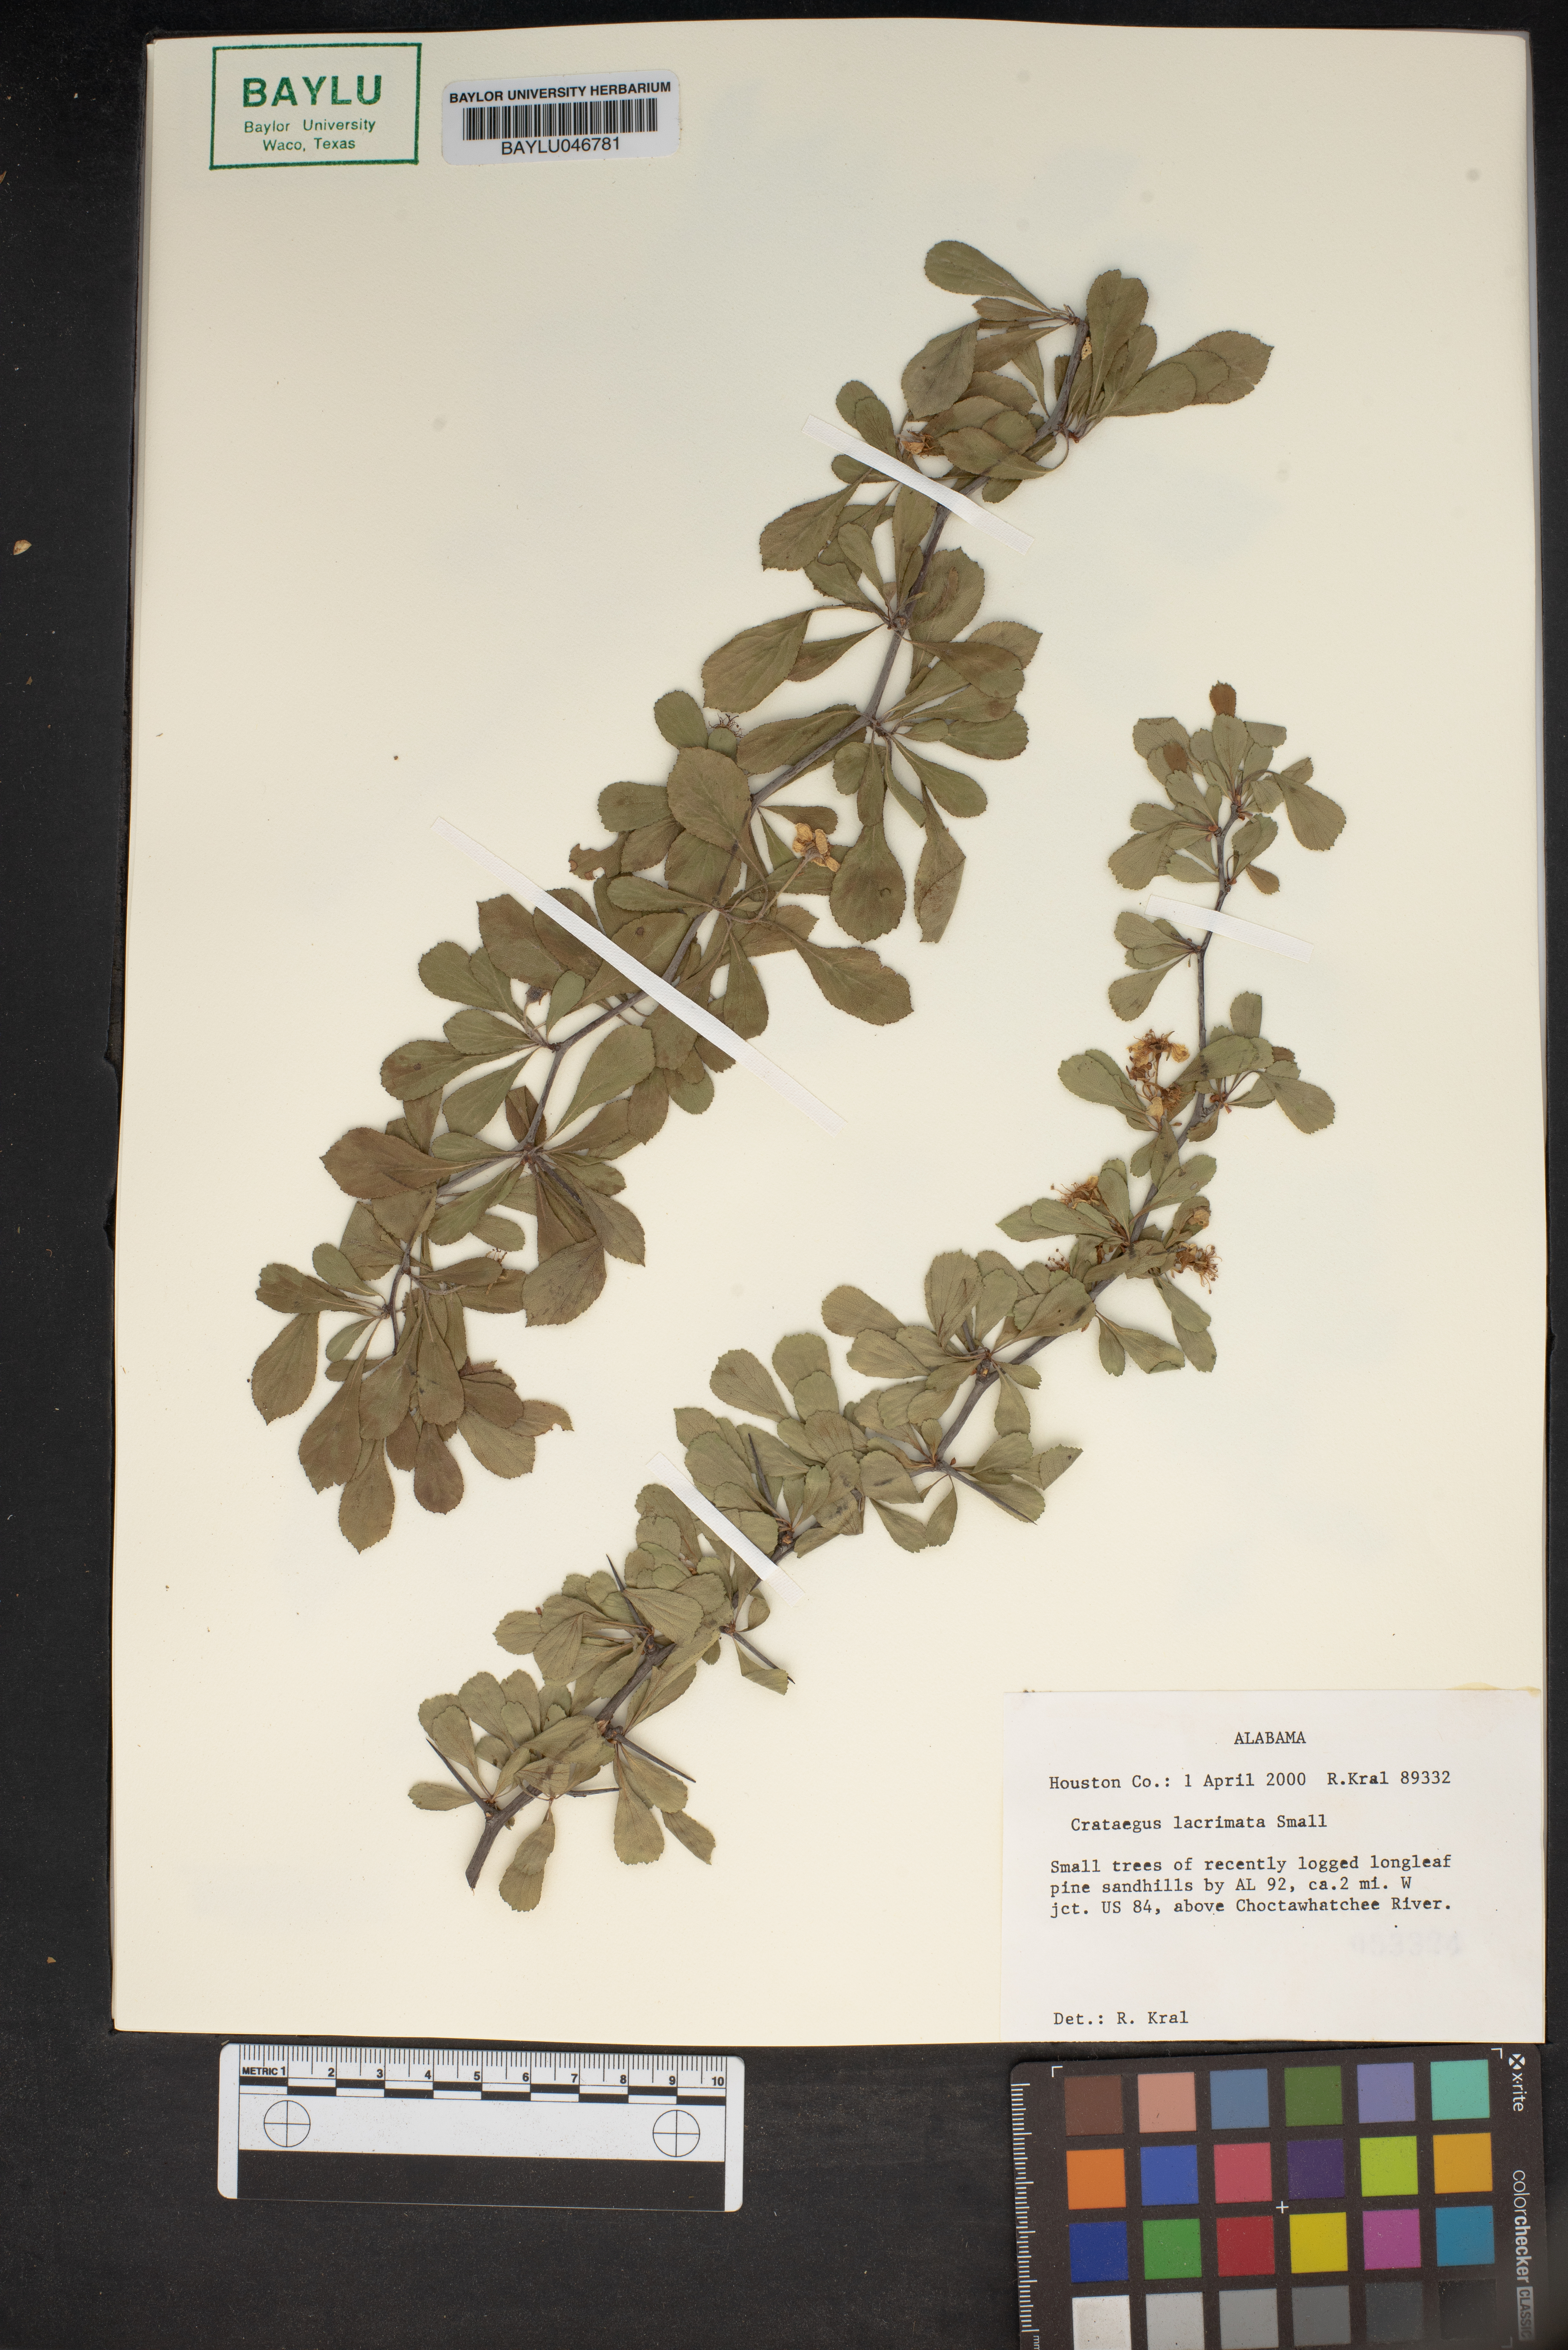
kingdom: Plantae
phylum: Tracheophyta
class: Magnoliopsida
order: Rosales
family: Rosaceae
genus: Crataegus
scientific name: Crataegus lacrimata
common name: Weeping hawthorn
